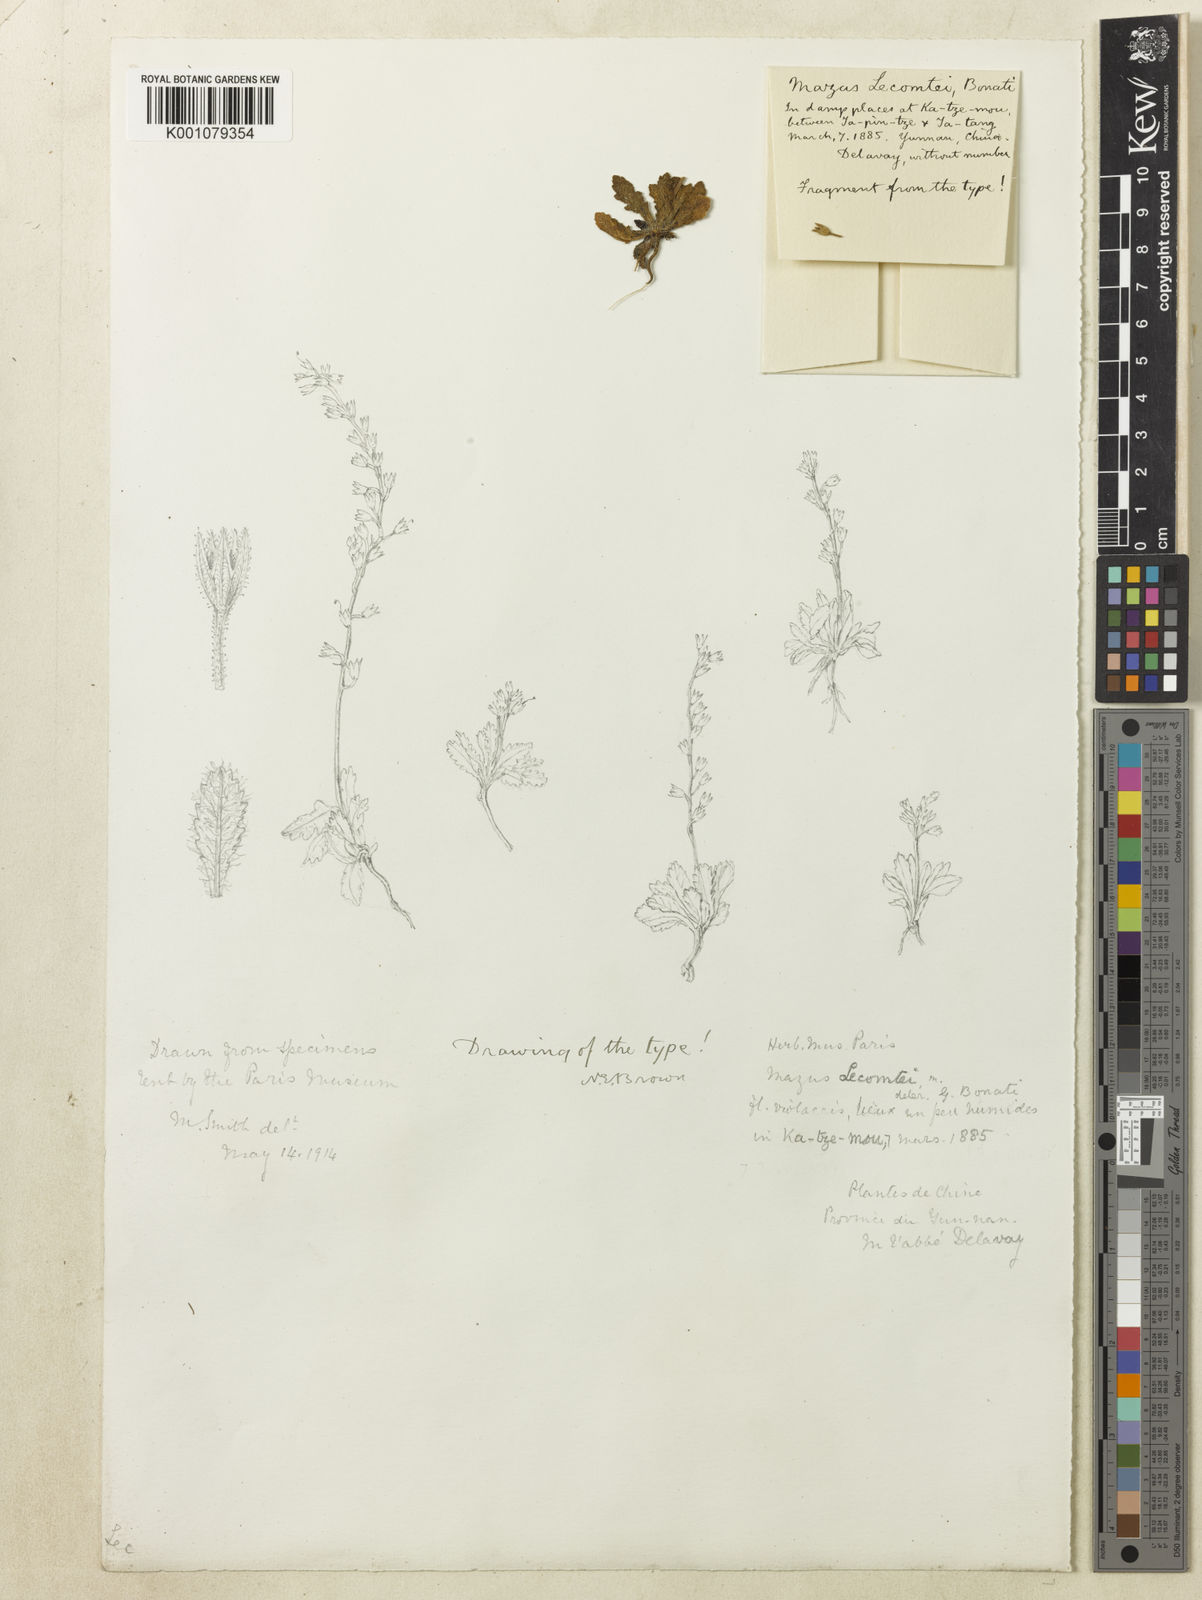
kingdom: Plantae
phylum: Tracheophyta
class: Magnoliopsida
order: Lamiales
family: Mazaceae
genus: Mazus
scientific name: Mazus lecomtei
